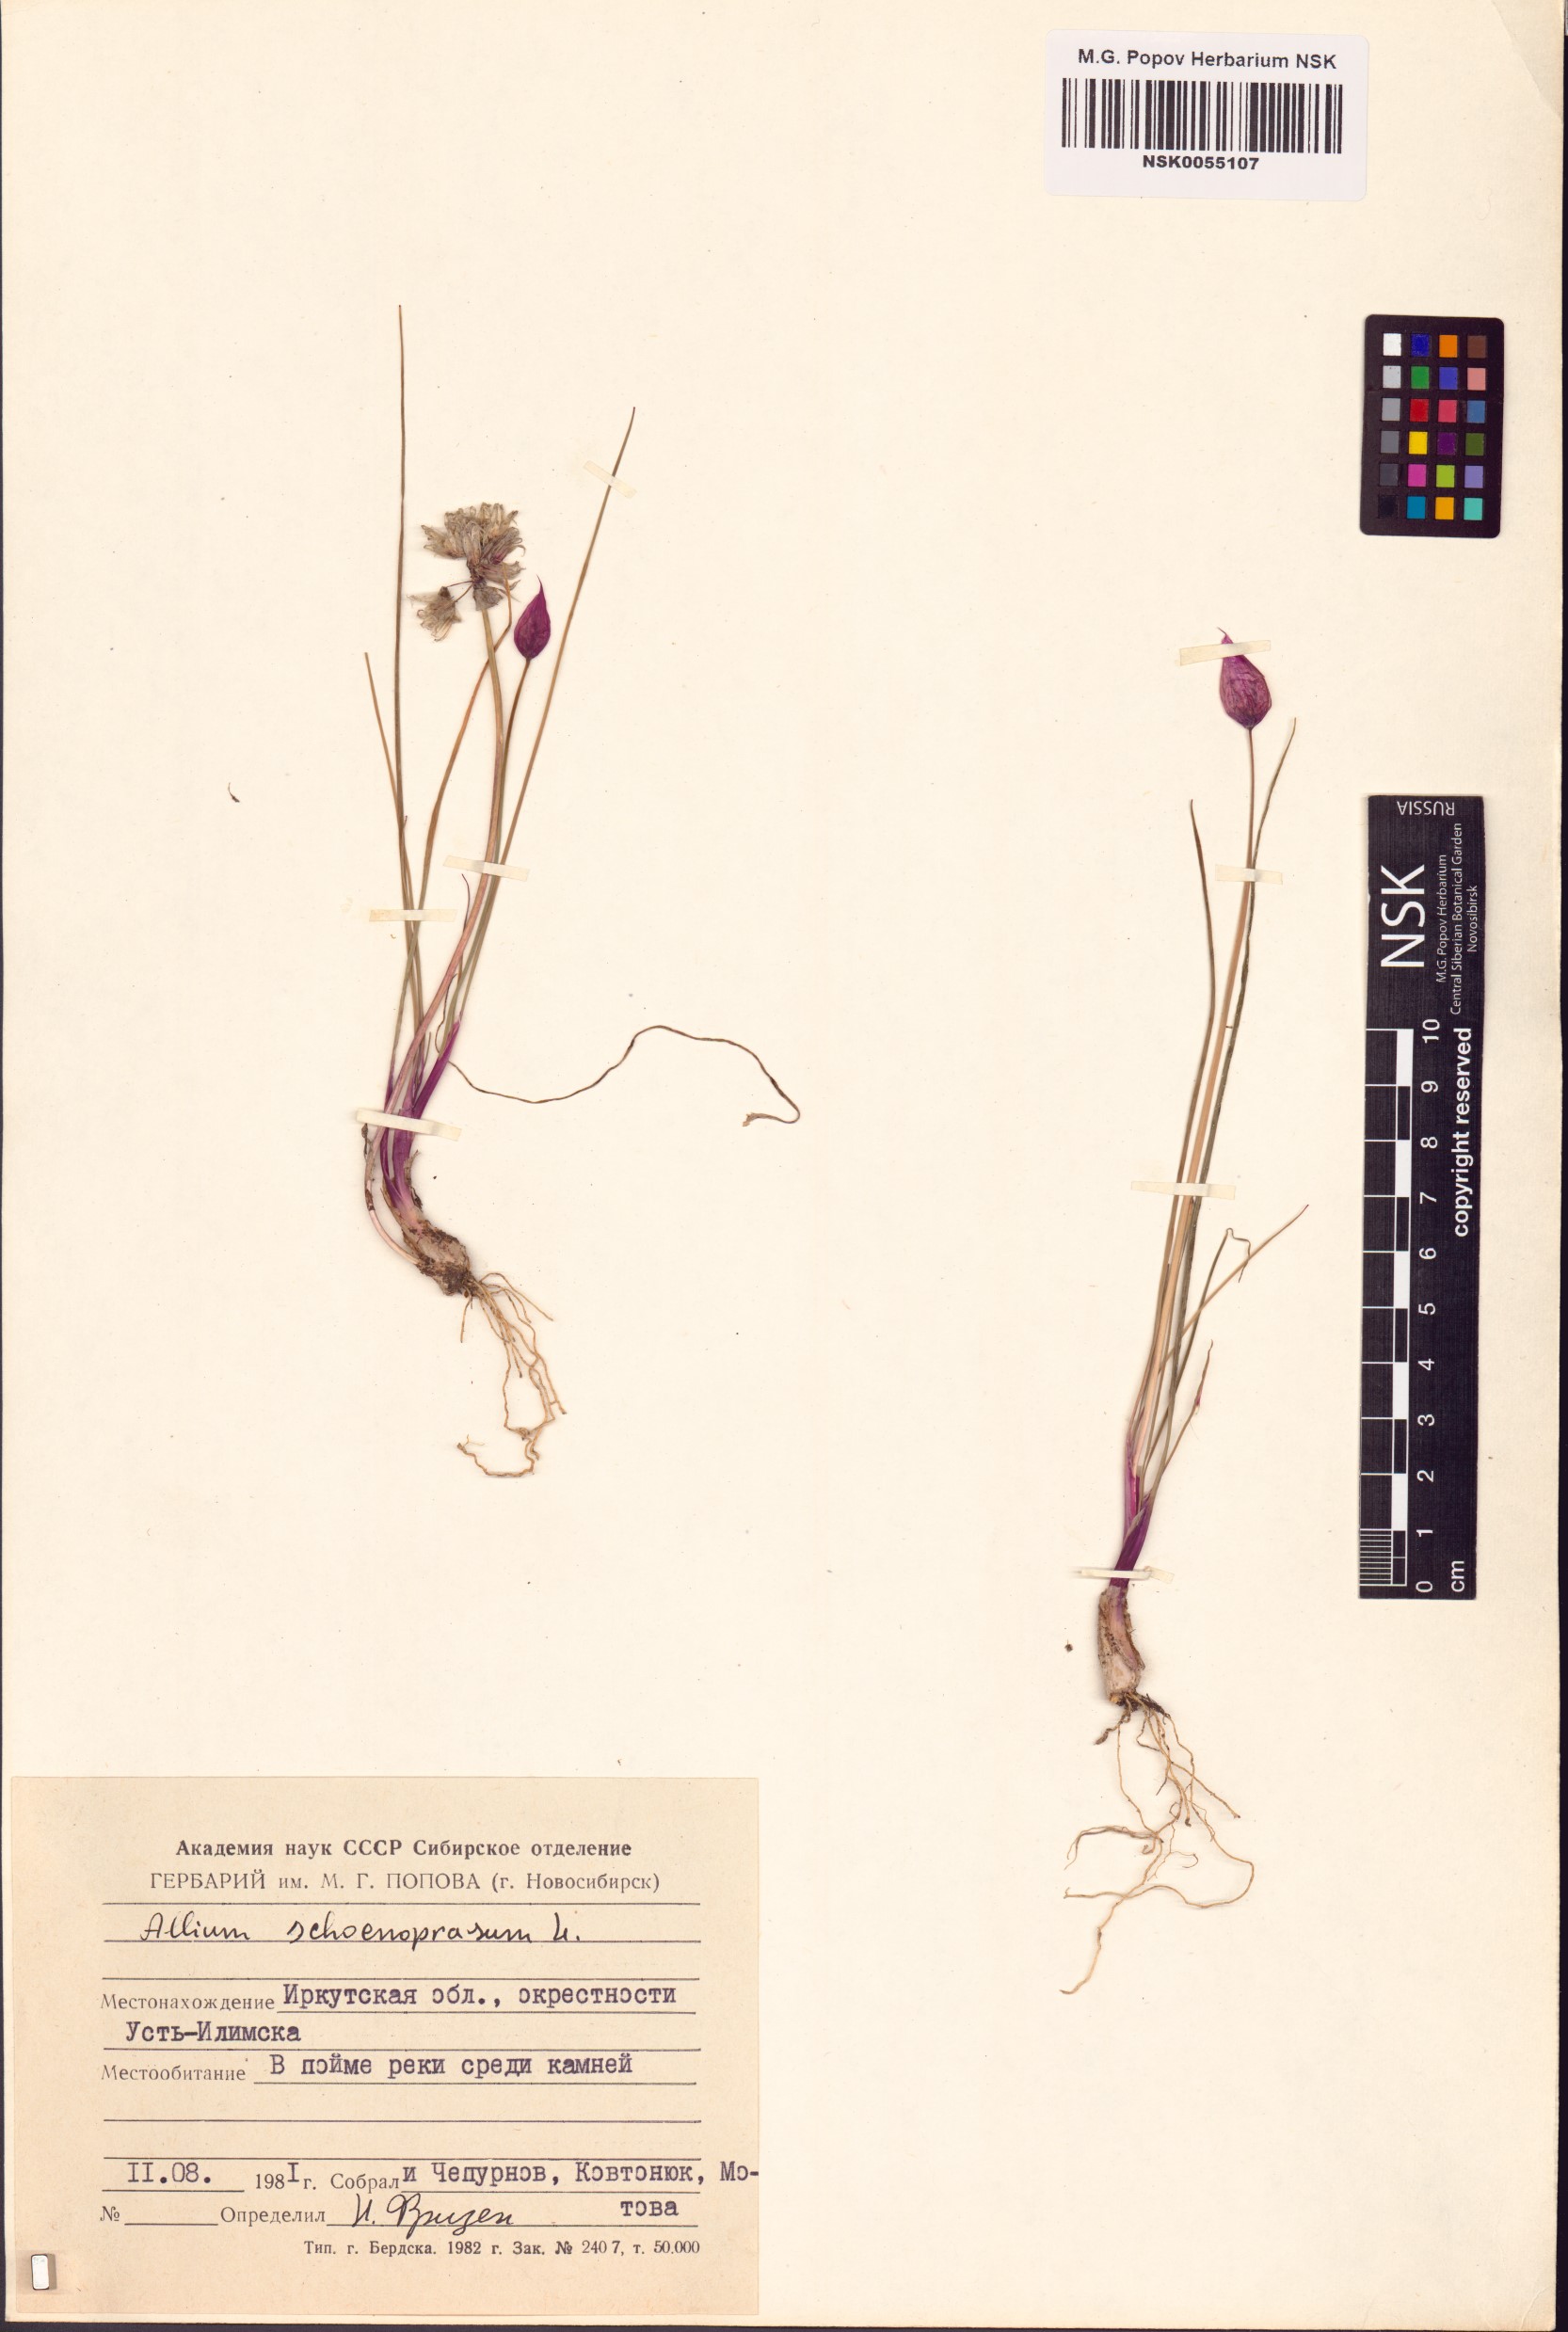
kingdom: Plantae
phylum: Tracheophyta
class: Liliopsida
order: Asparagales
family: Amaryllidaceae
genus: Allium
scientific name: Allium schoenoprasum
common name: Chives
